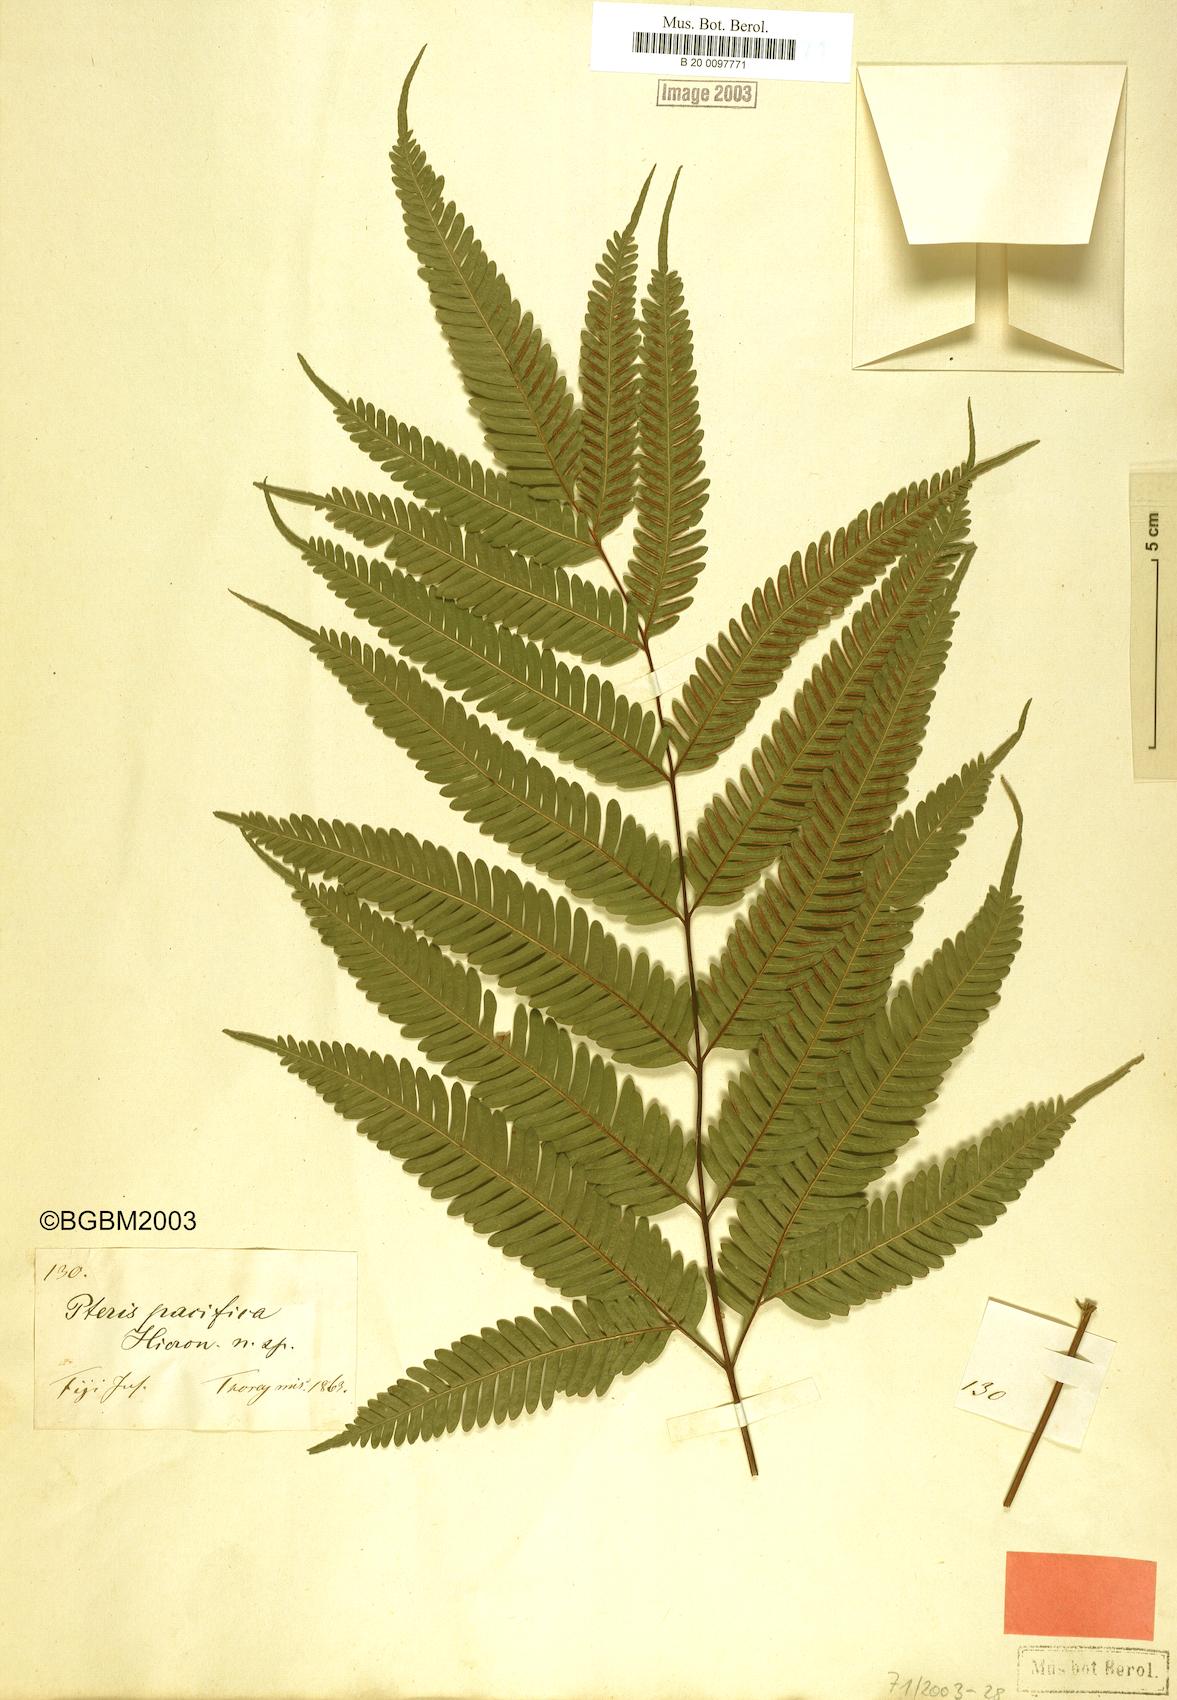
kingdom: Plantae
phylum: Tracheophyta
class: Polypodiopsida
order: Polypodiales
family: Pteridaceae
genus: Pteris
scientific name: Pteris biaurita
